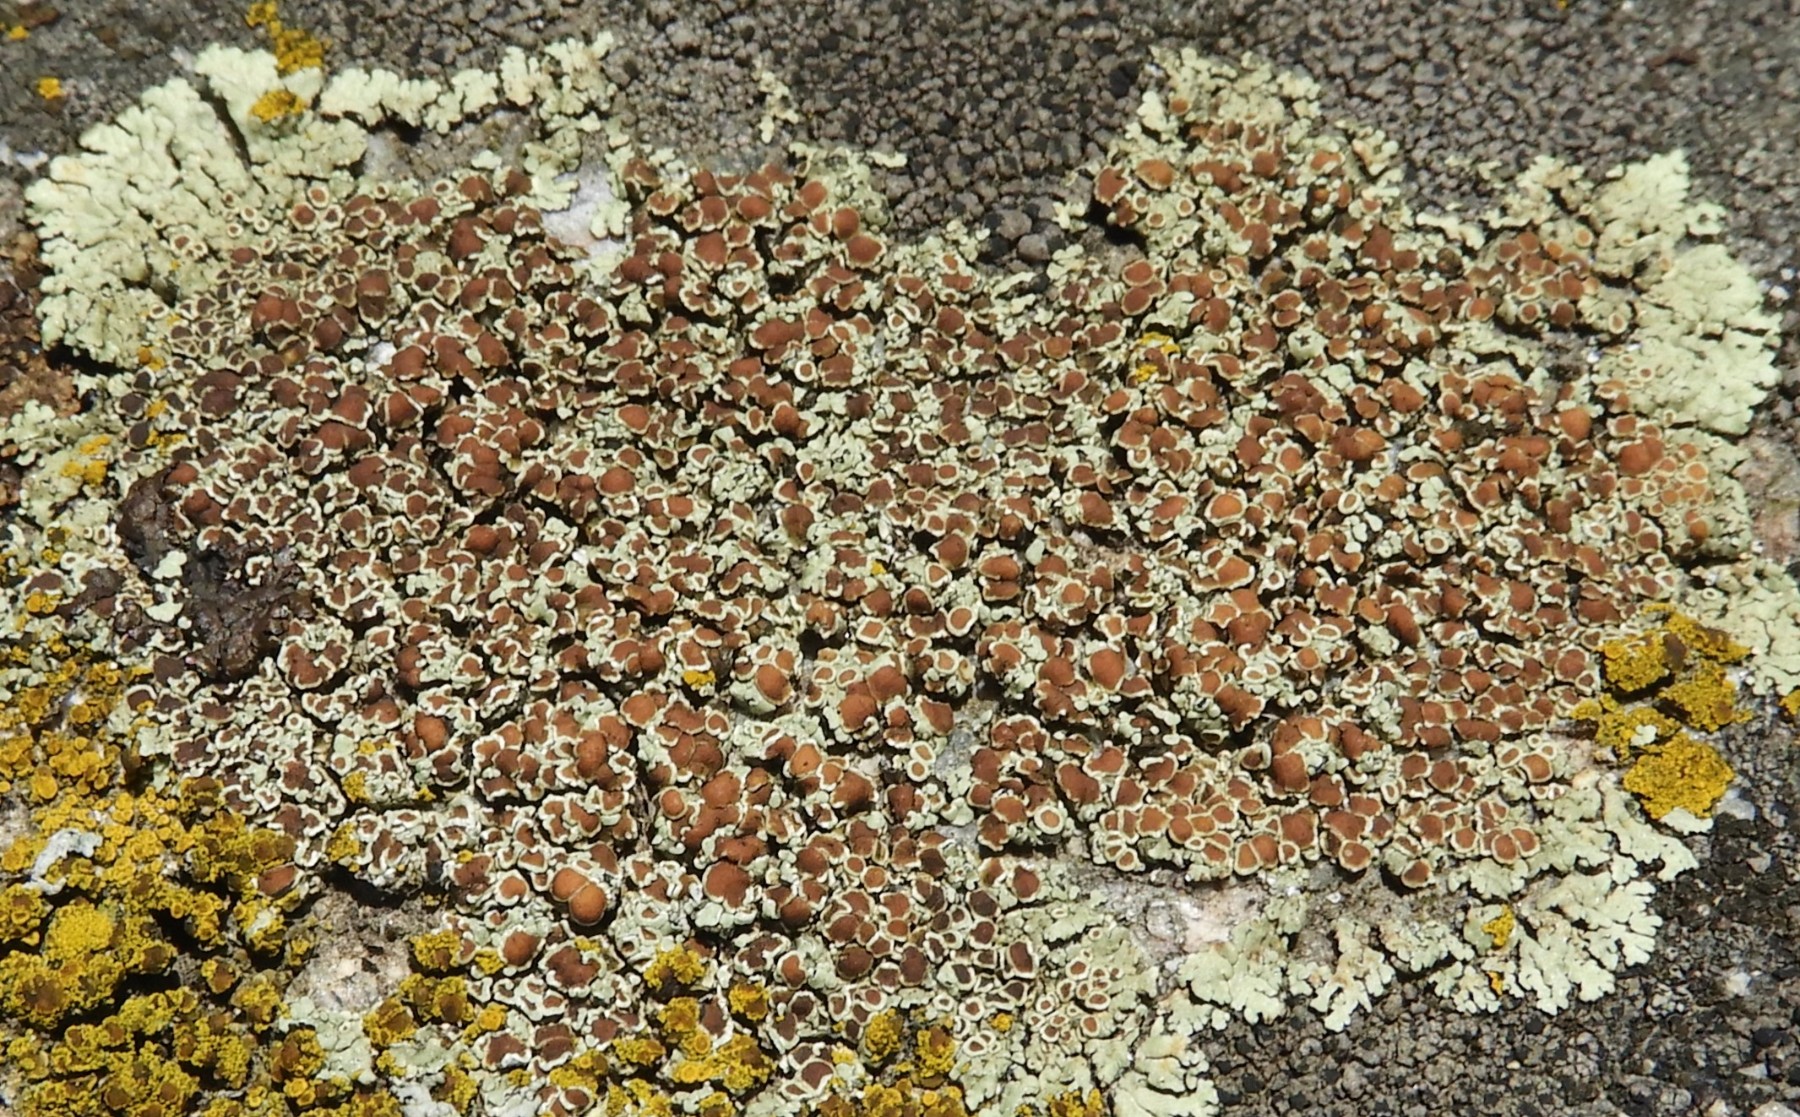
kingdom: Fungi
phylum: Ascomycota
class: Lecanoromycetes
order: Lecanorales
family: Lecanoraceae
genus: Protoparmeliopsis
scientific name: Protoparmeliopsis muralis
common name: randfliget kantskivelav
